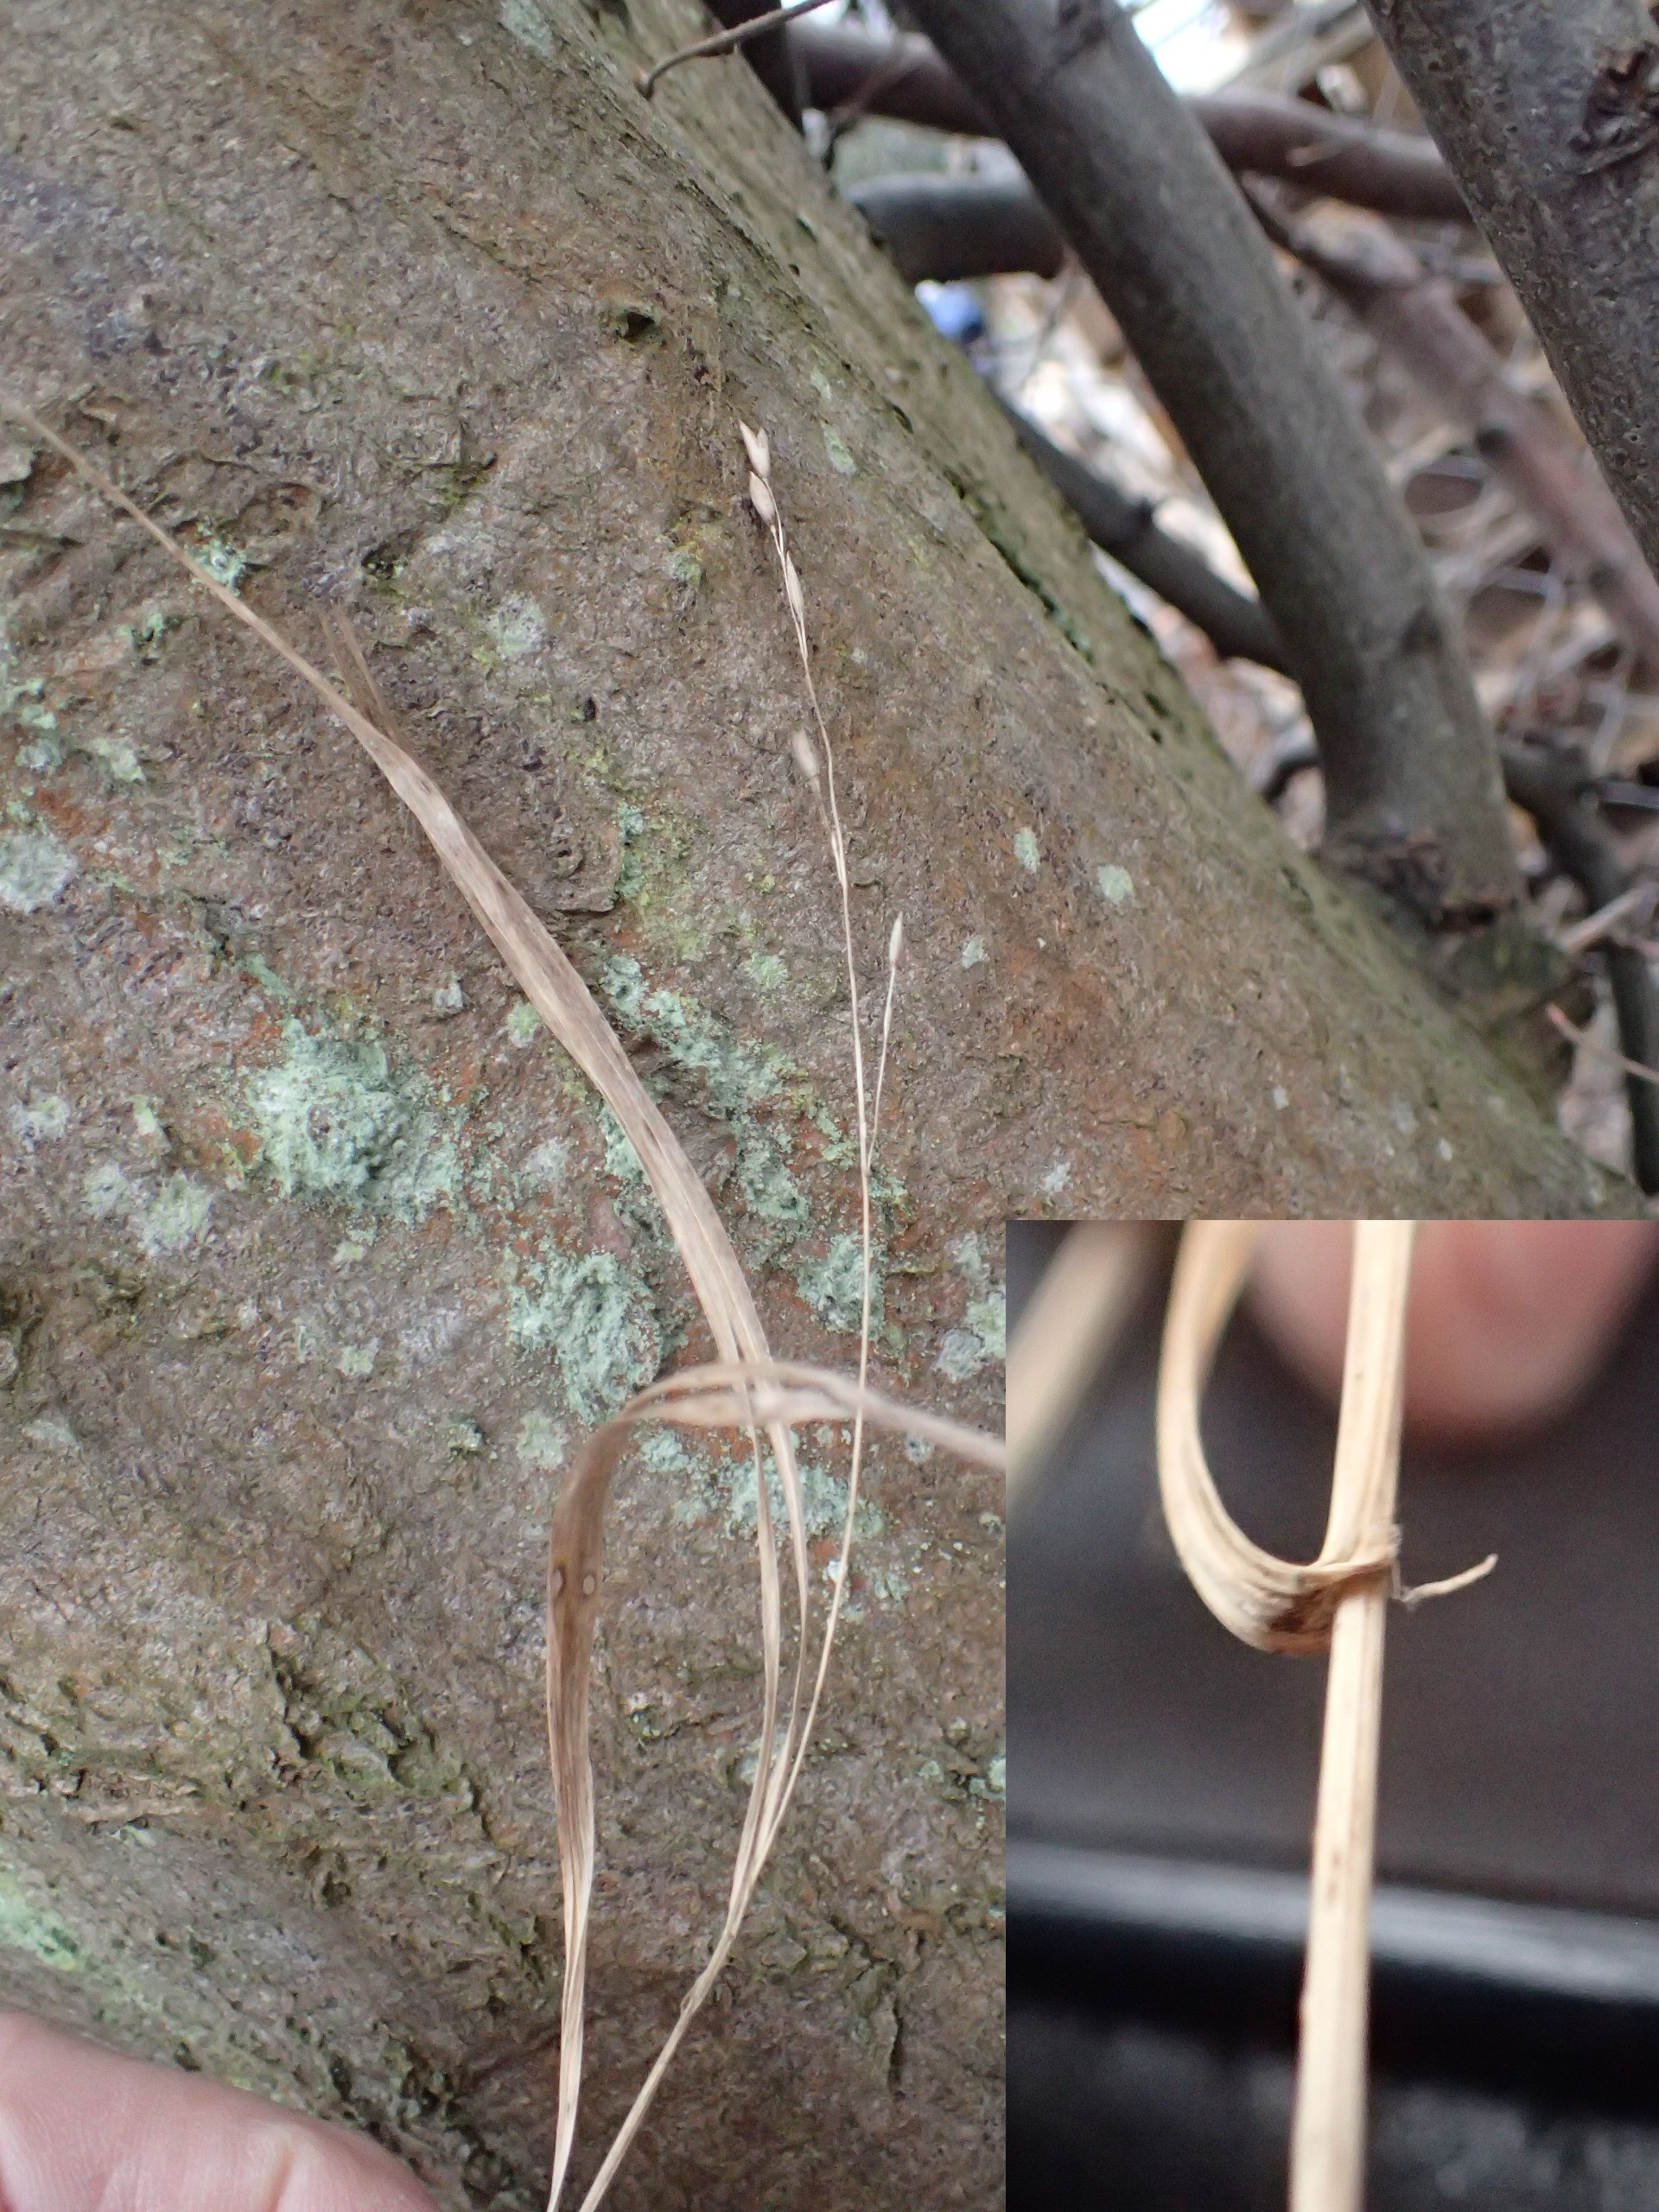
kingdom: Plantae
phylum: Tracheophyta
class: Liliopsida
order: Poales
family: Poaceae
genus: Melica
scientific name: Melica uniflora
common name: Enblomstret flitteraks
